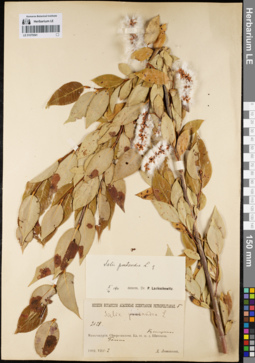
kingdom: Plantae
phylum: Tracheophyta
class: Magnoliopsida
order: Malpighiales
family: Salicaceae
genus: Salix
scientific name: Salix pseudopentandra
